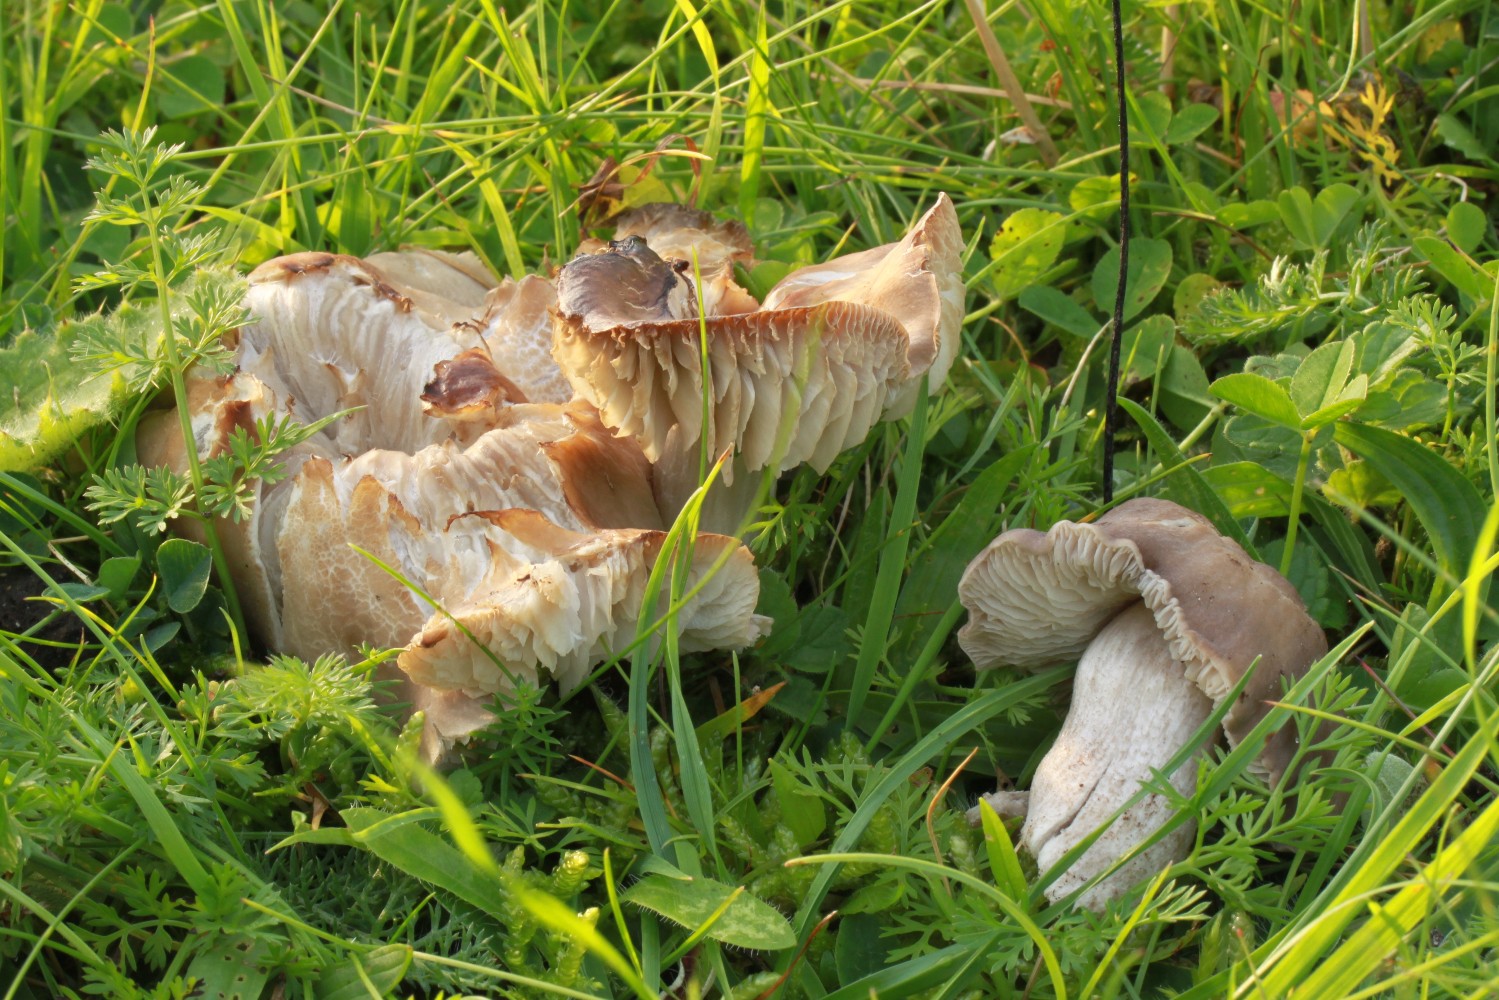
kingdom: Fungi
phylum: Basidiomycota
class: Agaricomycetes
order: Agaricales
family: Tricholomataceae
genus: Pseudotricholoma
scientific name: Pseudotricholoma metapodium
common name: rødmende alfehat
